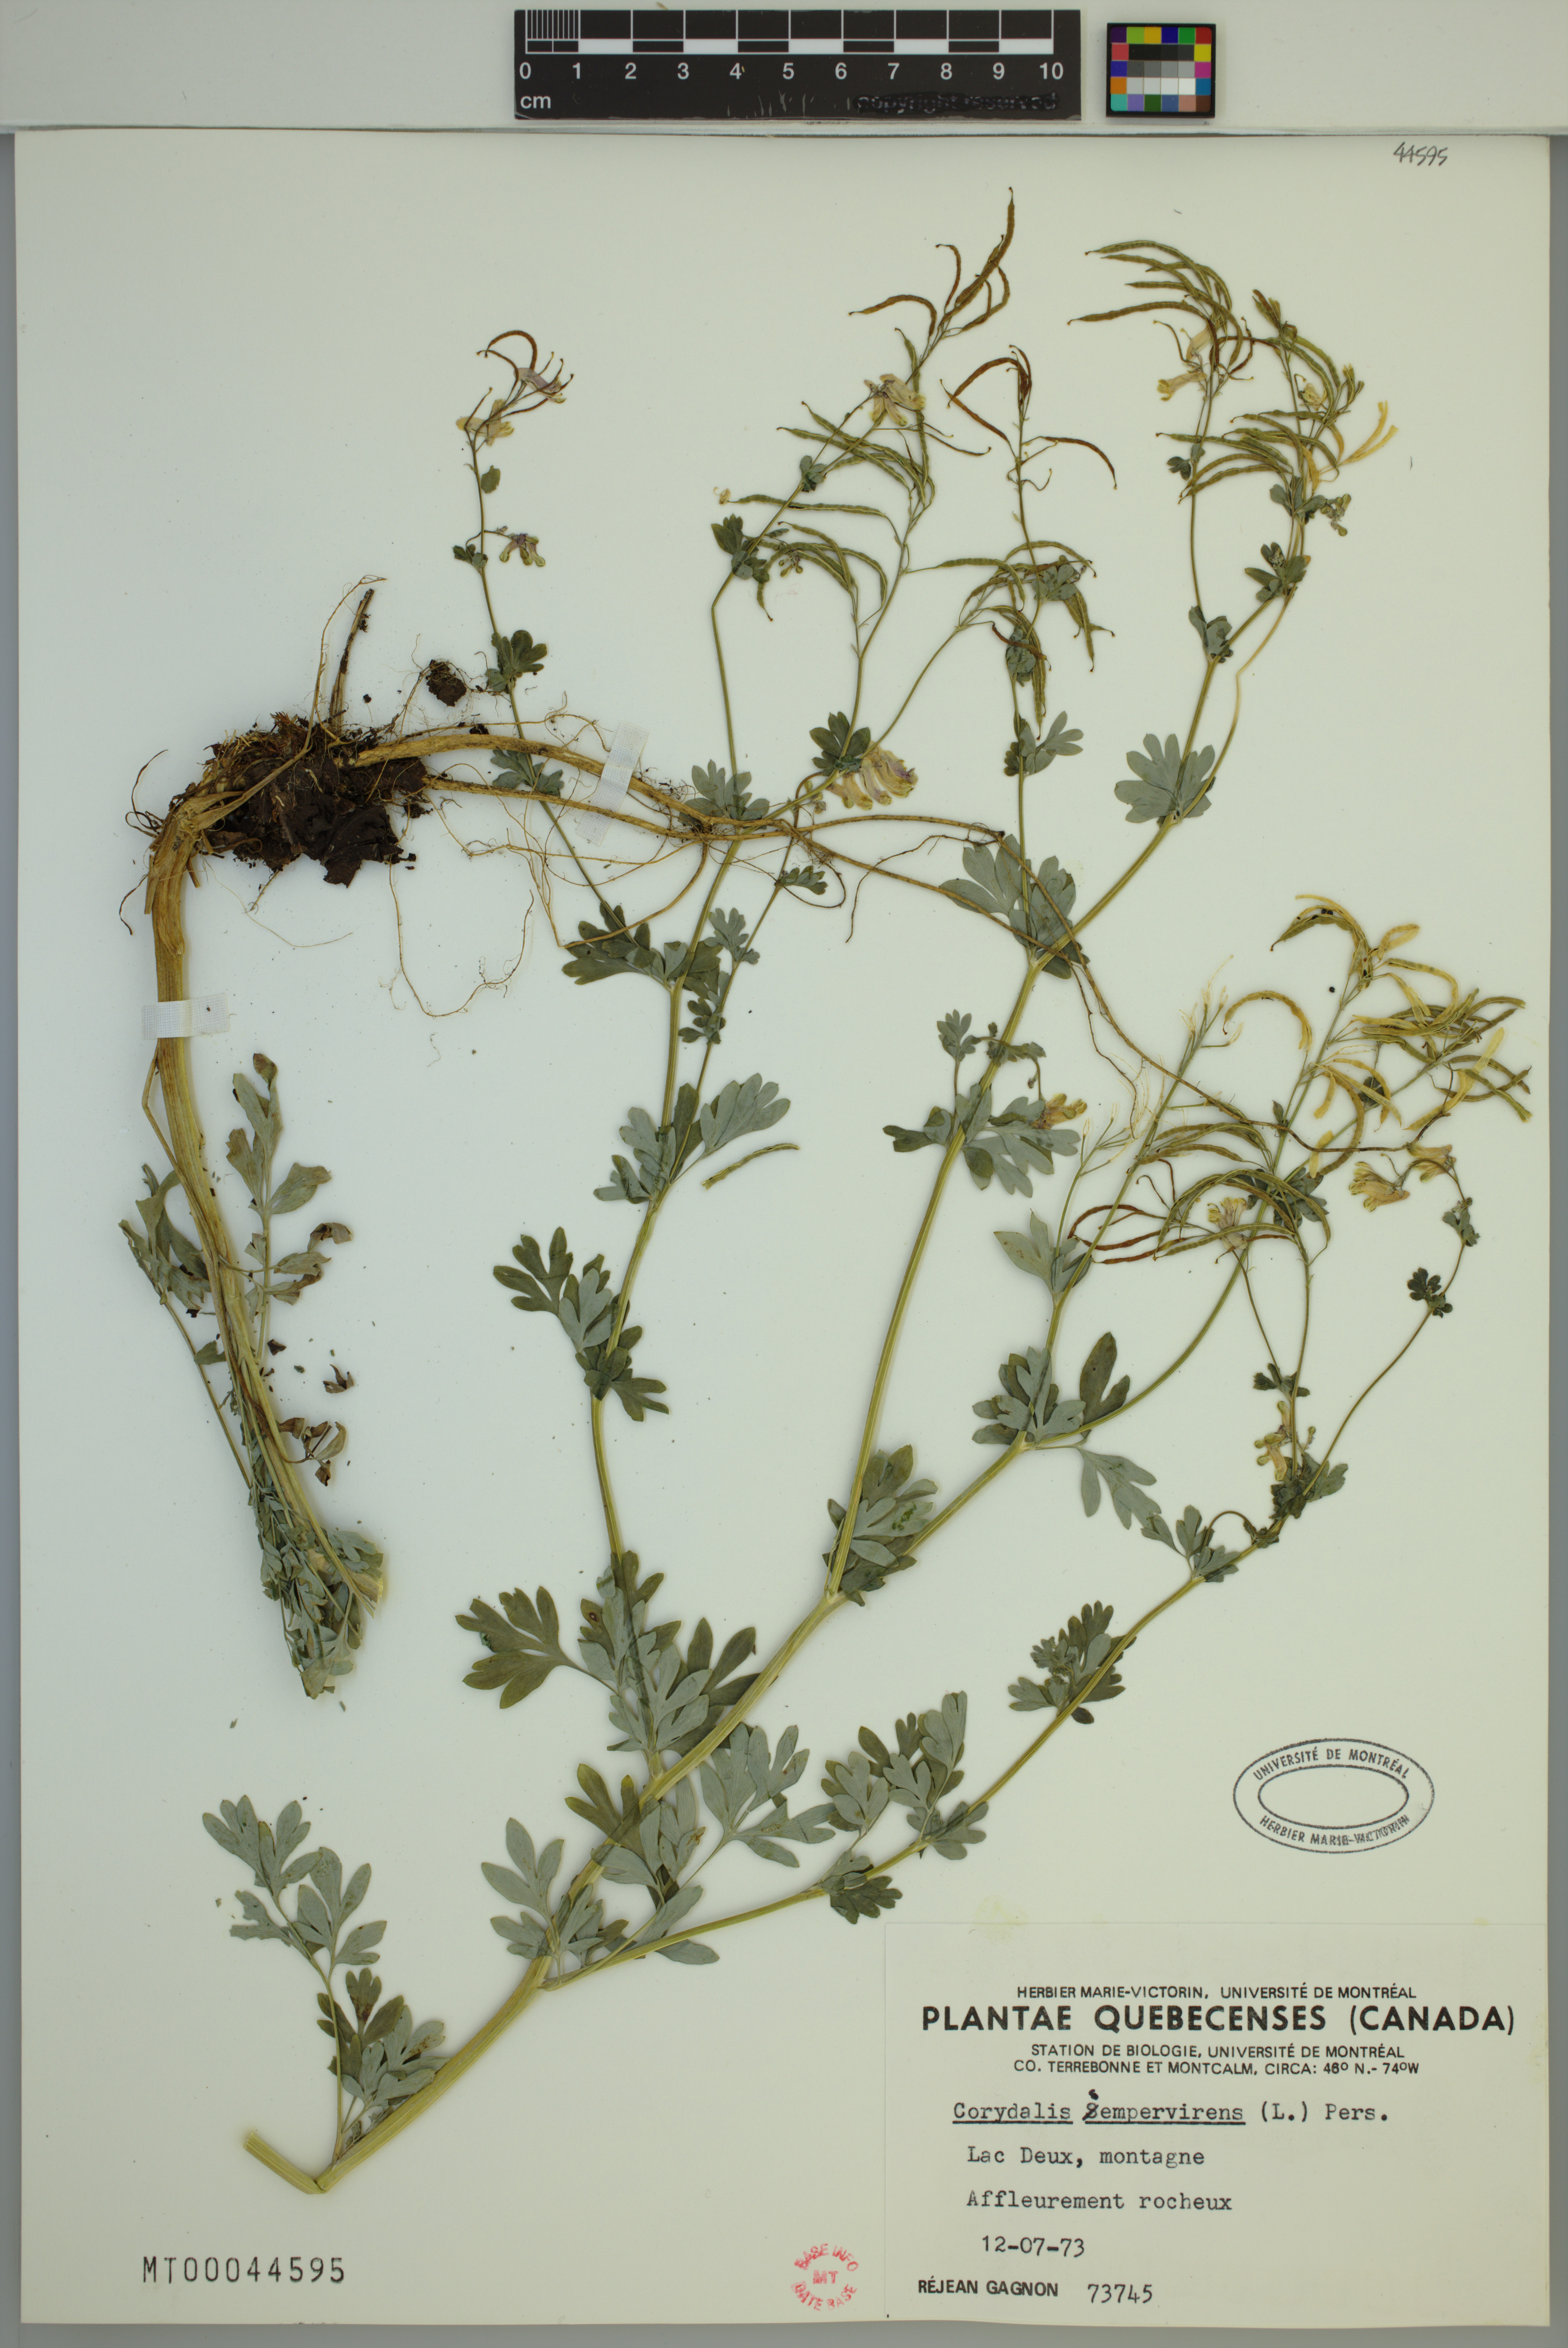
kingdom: Plantae
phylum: Tracheophyta
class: Magnoliopsida
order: Ranunculales
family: Papaveraceae
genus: Capnoides
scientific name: Capnoides sempervirens
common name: Rock harlequin
